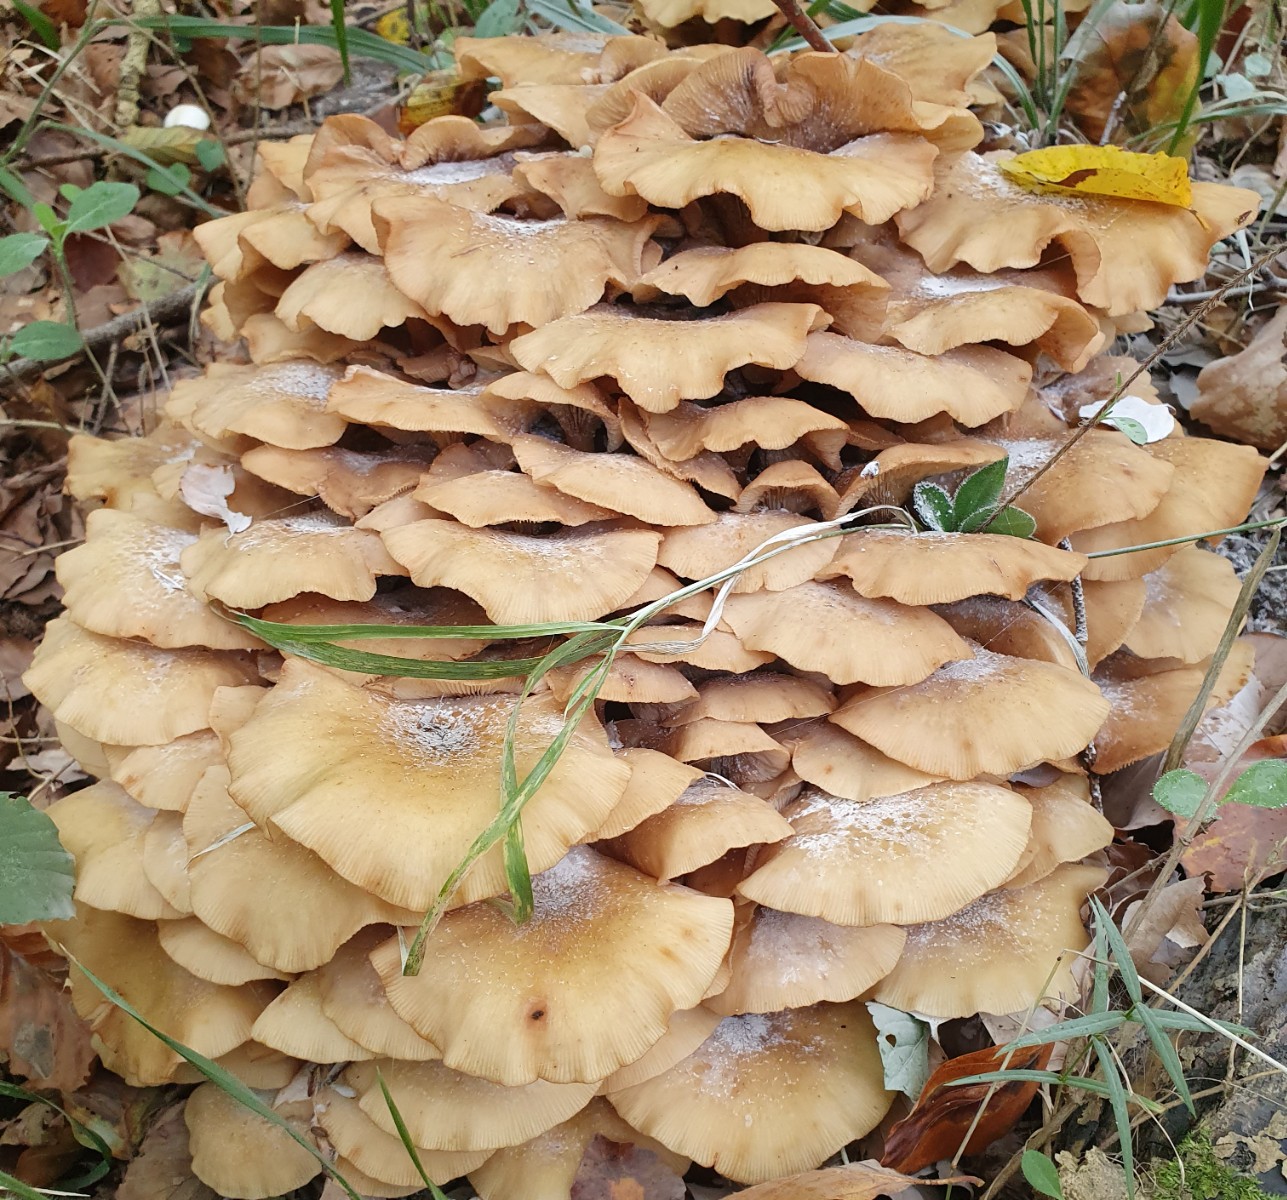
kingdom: Fungi
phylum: Basidiomycota
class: Agaricomycetes
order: Agaricales
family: Physalacriaceae
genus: Armillaria
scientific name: Armillaria mellea
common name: ægte honningsvamp
